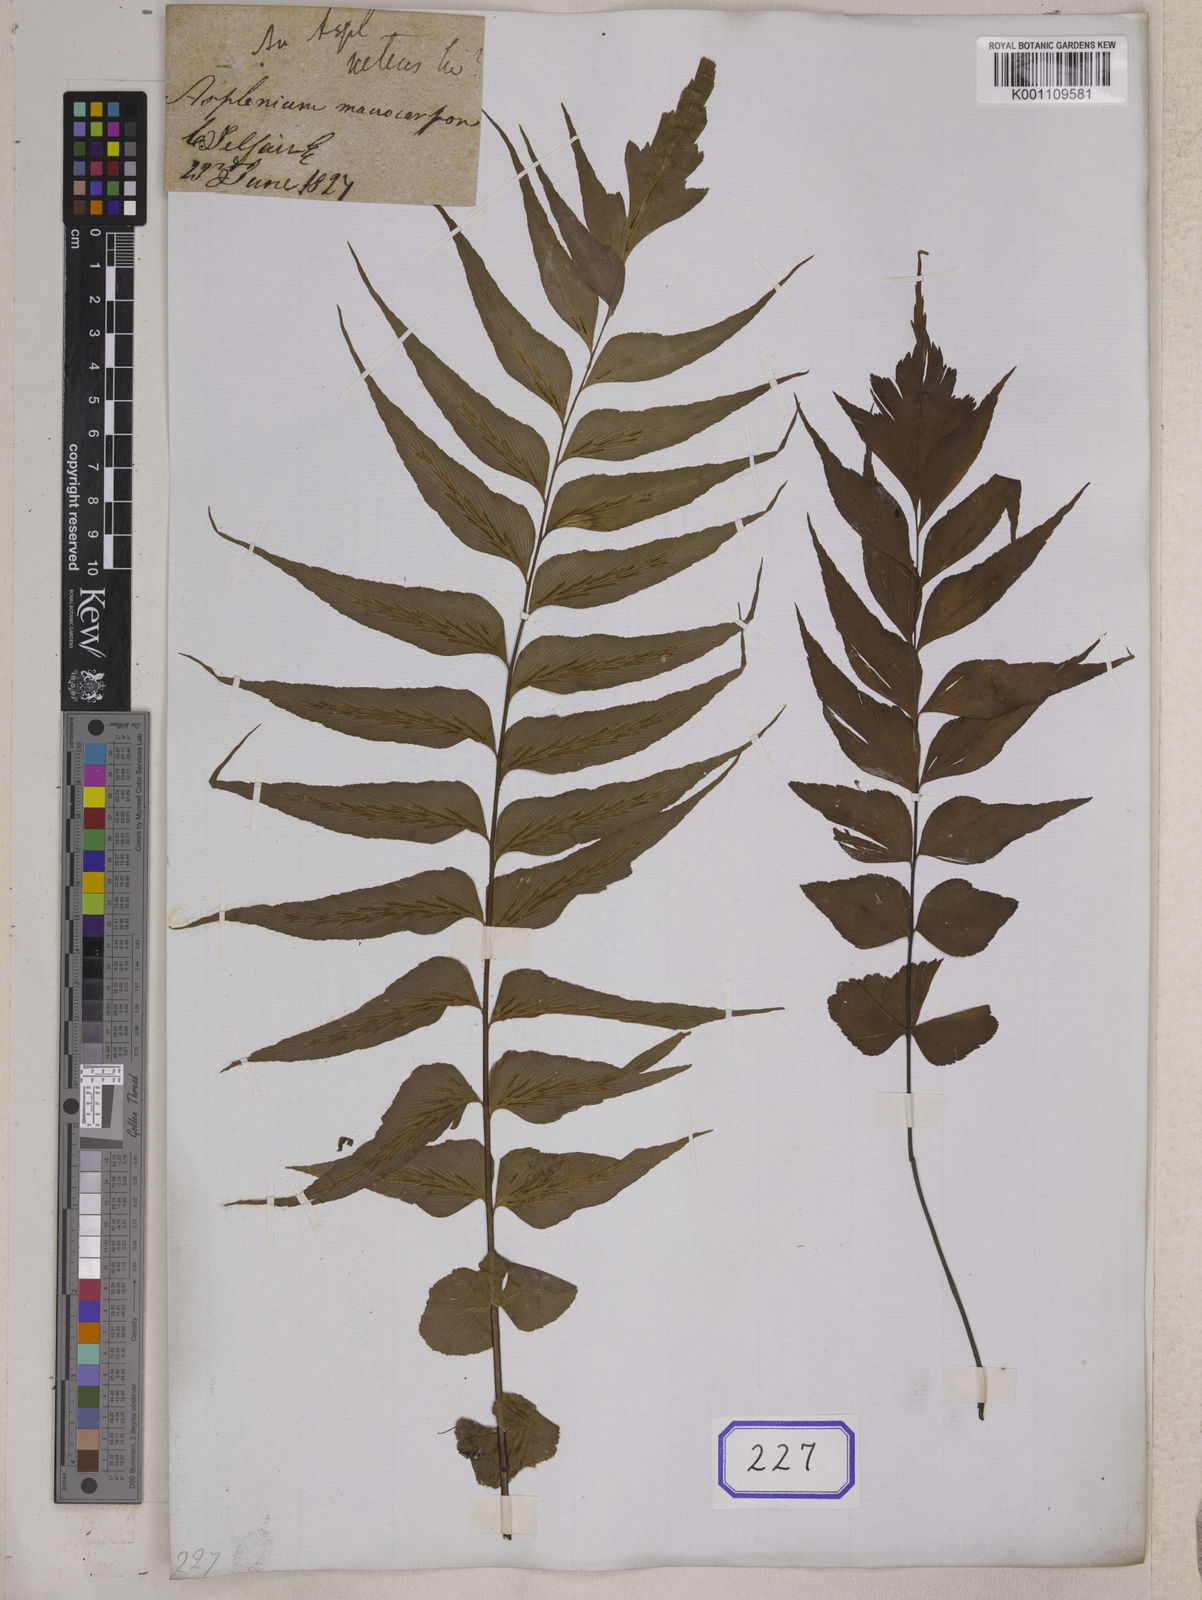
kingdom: Plantae
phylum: Tracheophyta
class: Polypodiopsida
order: Polypodiales
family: Aspleniaceae
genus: Asplenium
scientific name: Asplenium nitens
